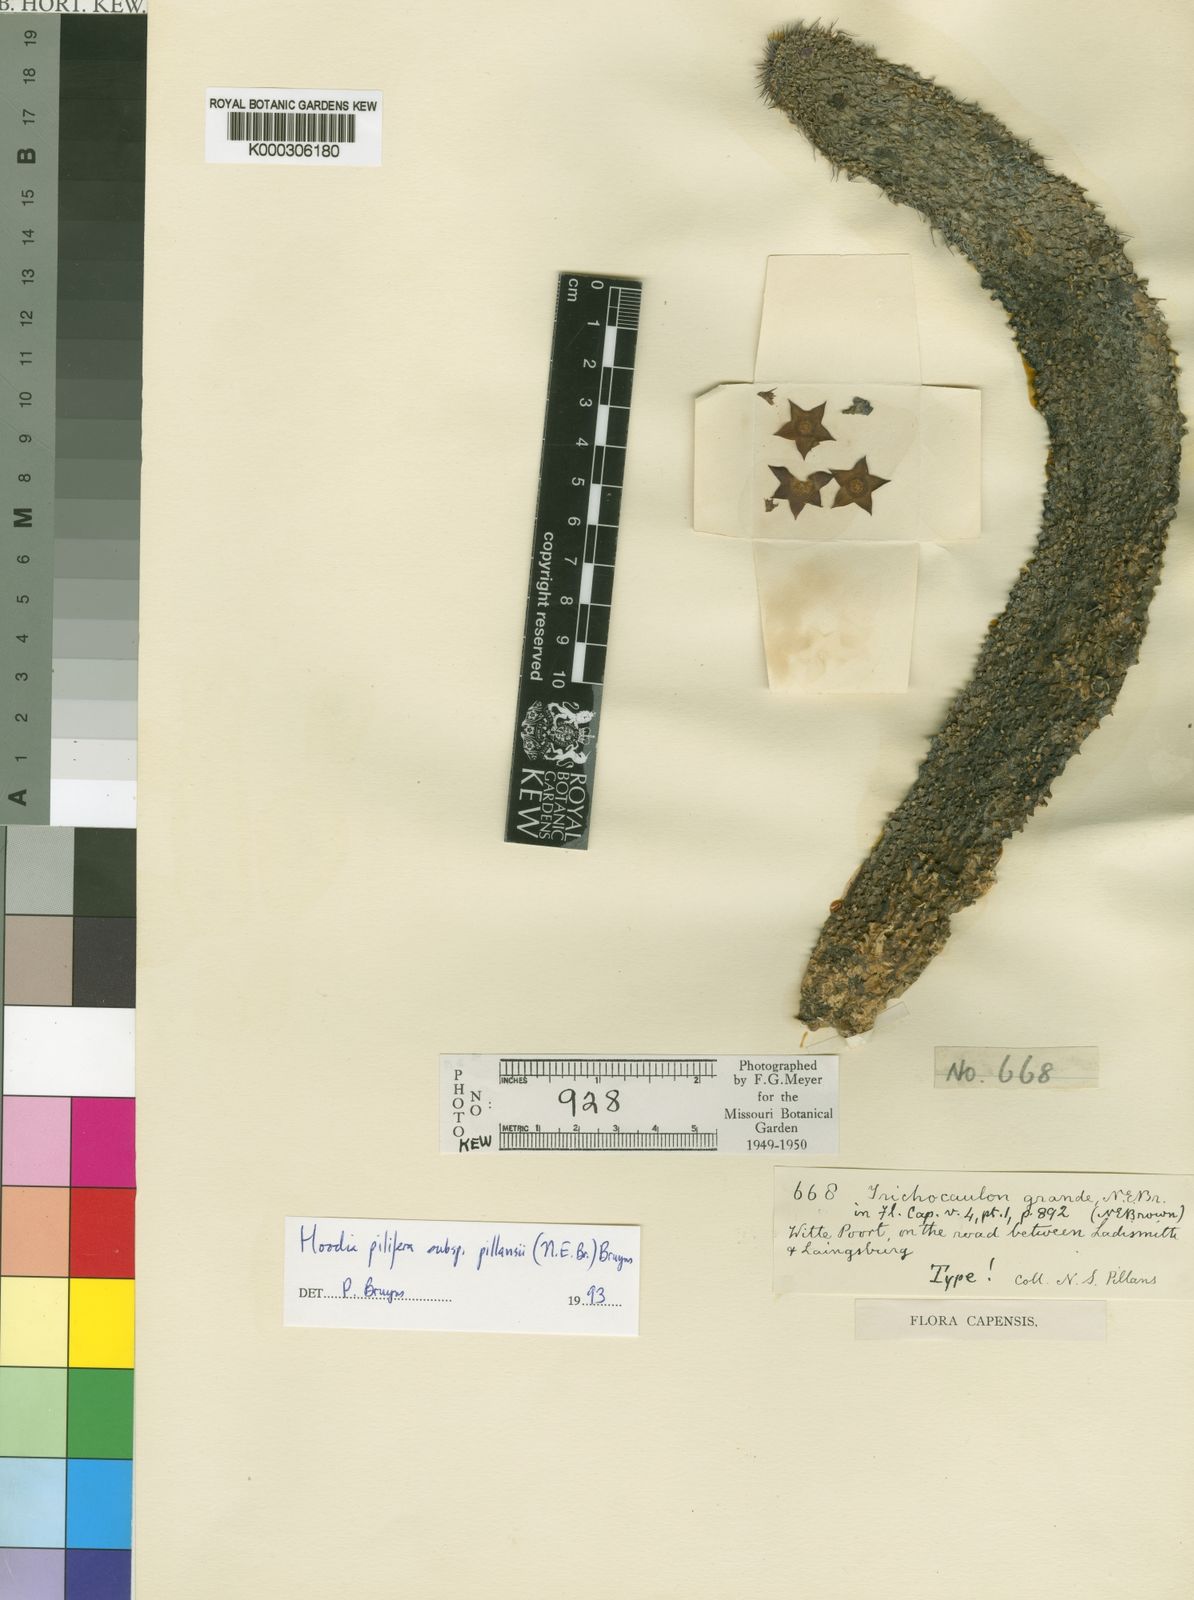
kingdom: Plantae
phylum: Tracheophyta
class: Magnoliopsida
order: Gentianales
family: Apocynaceae
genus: Ceropegia
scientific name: Ceropegia coleorum
